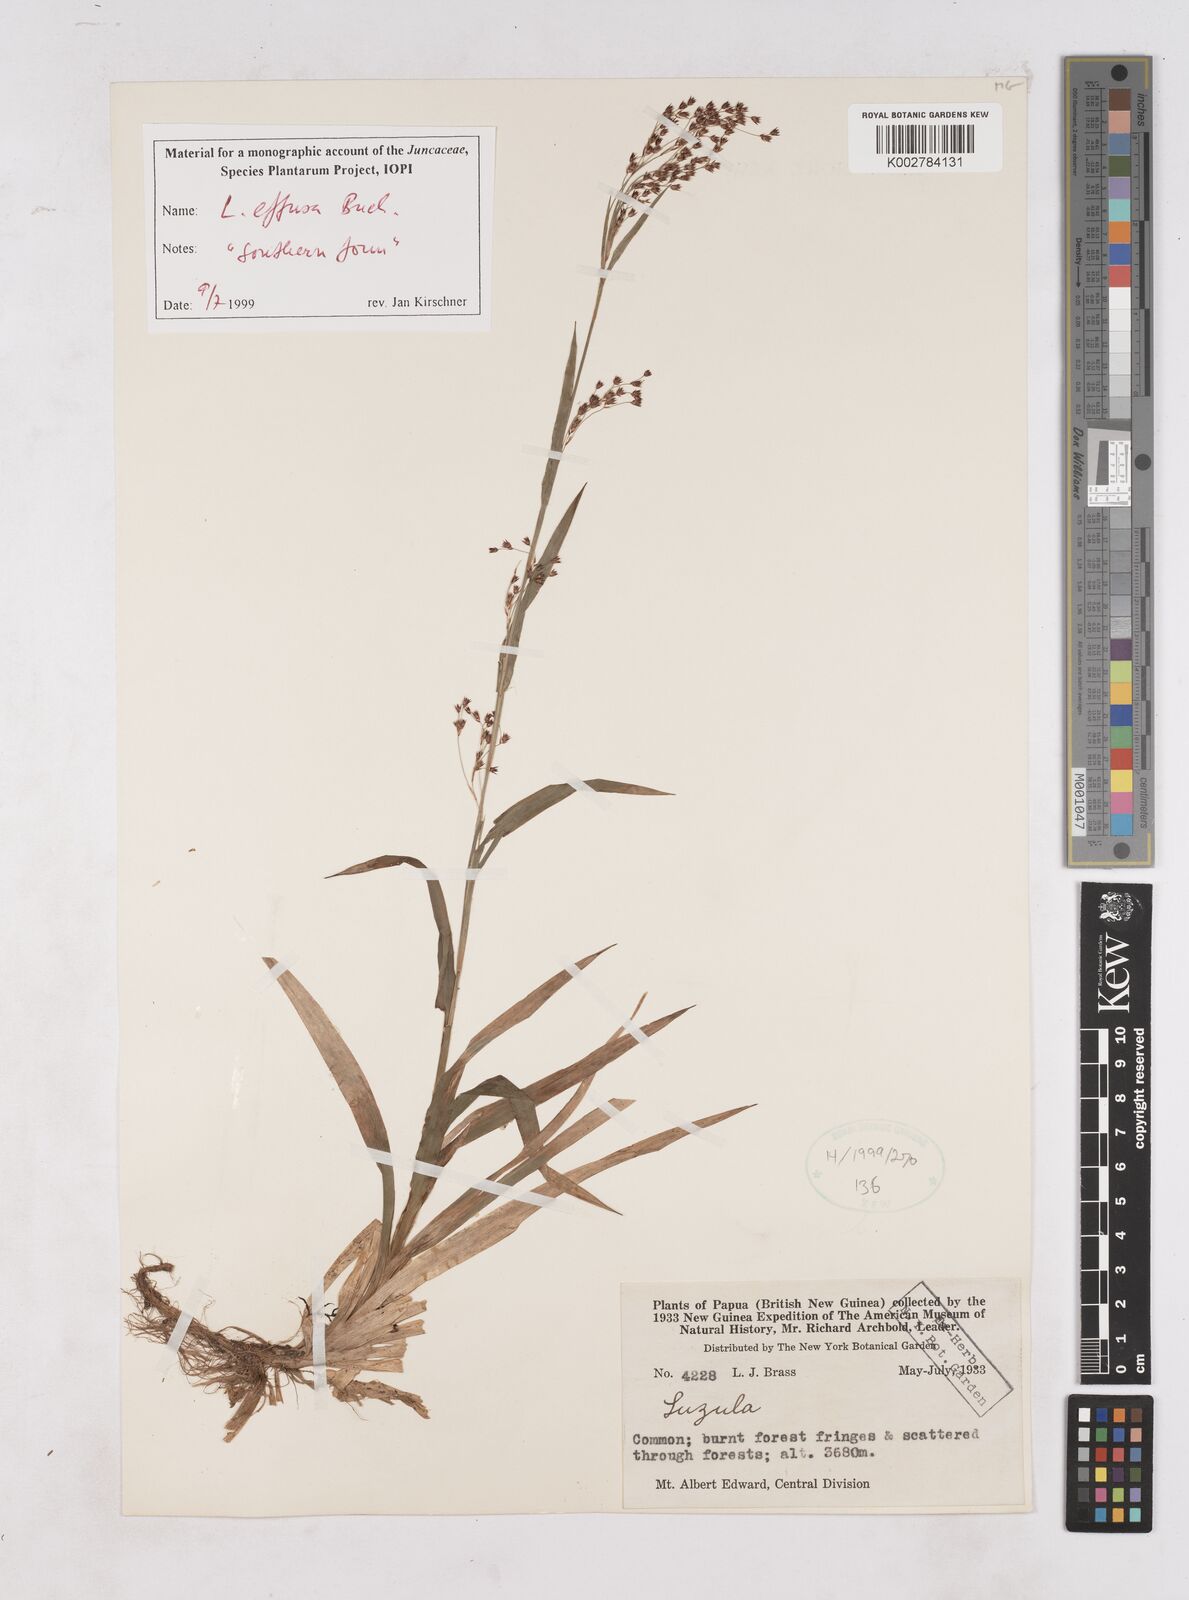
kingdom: Plantae
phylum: Tracheophyta
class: Liliopsida
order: Poales
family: Juncaceae
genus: Luzula
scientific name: Luzula effusa
